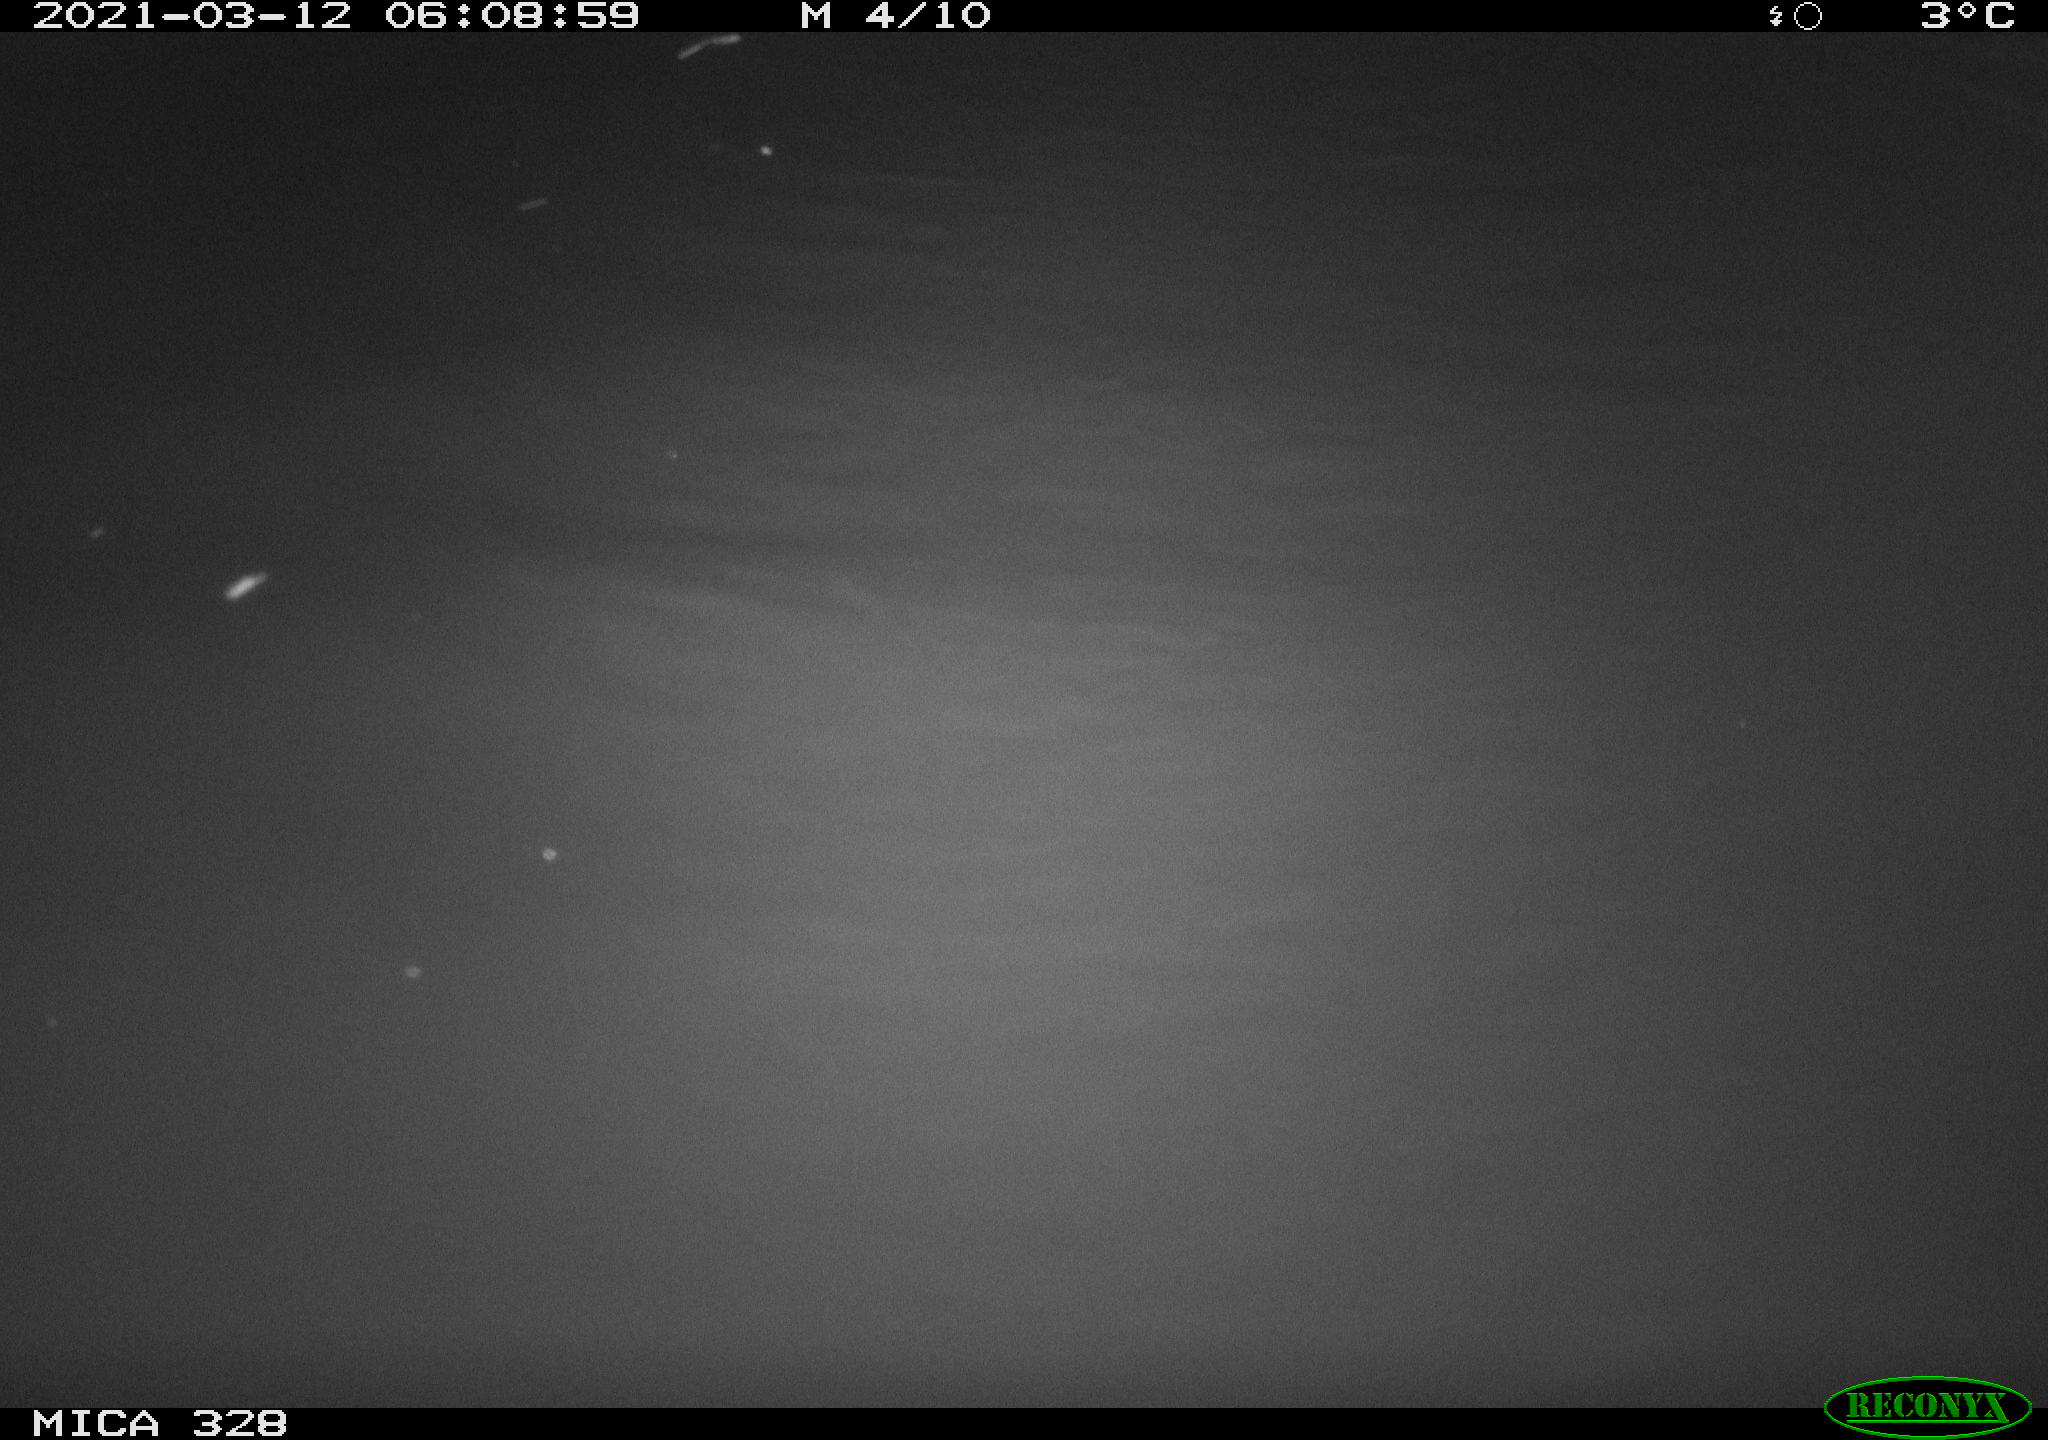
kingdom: Animalia
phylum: Chordata
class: Mammalia
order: Rodentia
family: Cricetidae
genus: Ondatra
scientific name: Ondatra zibethicus
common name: Muskrat
